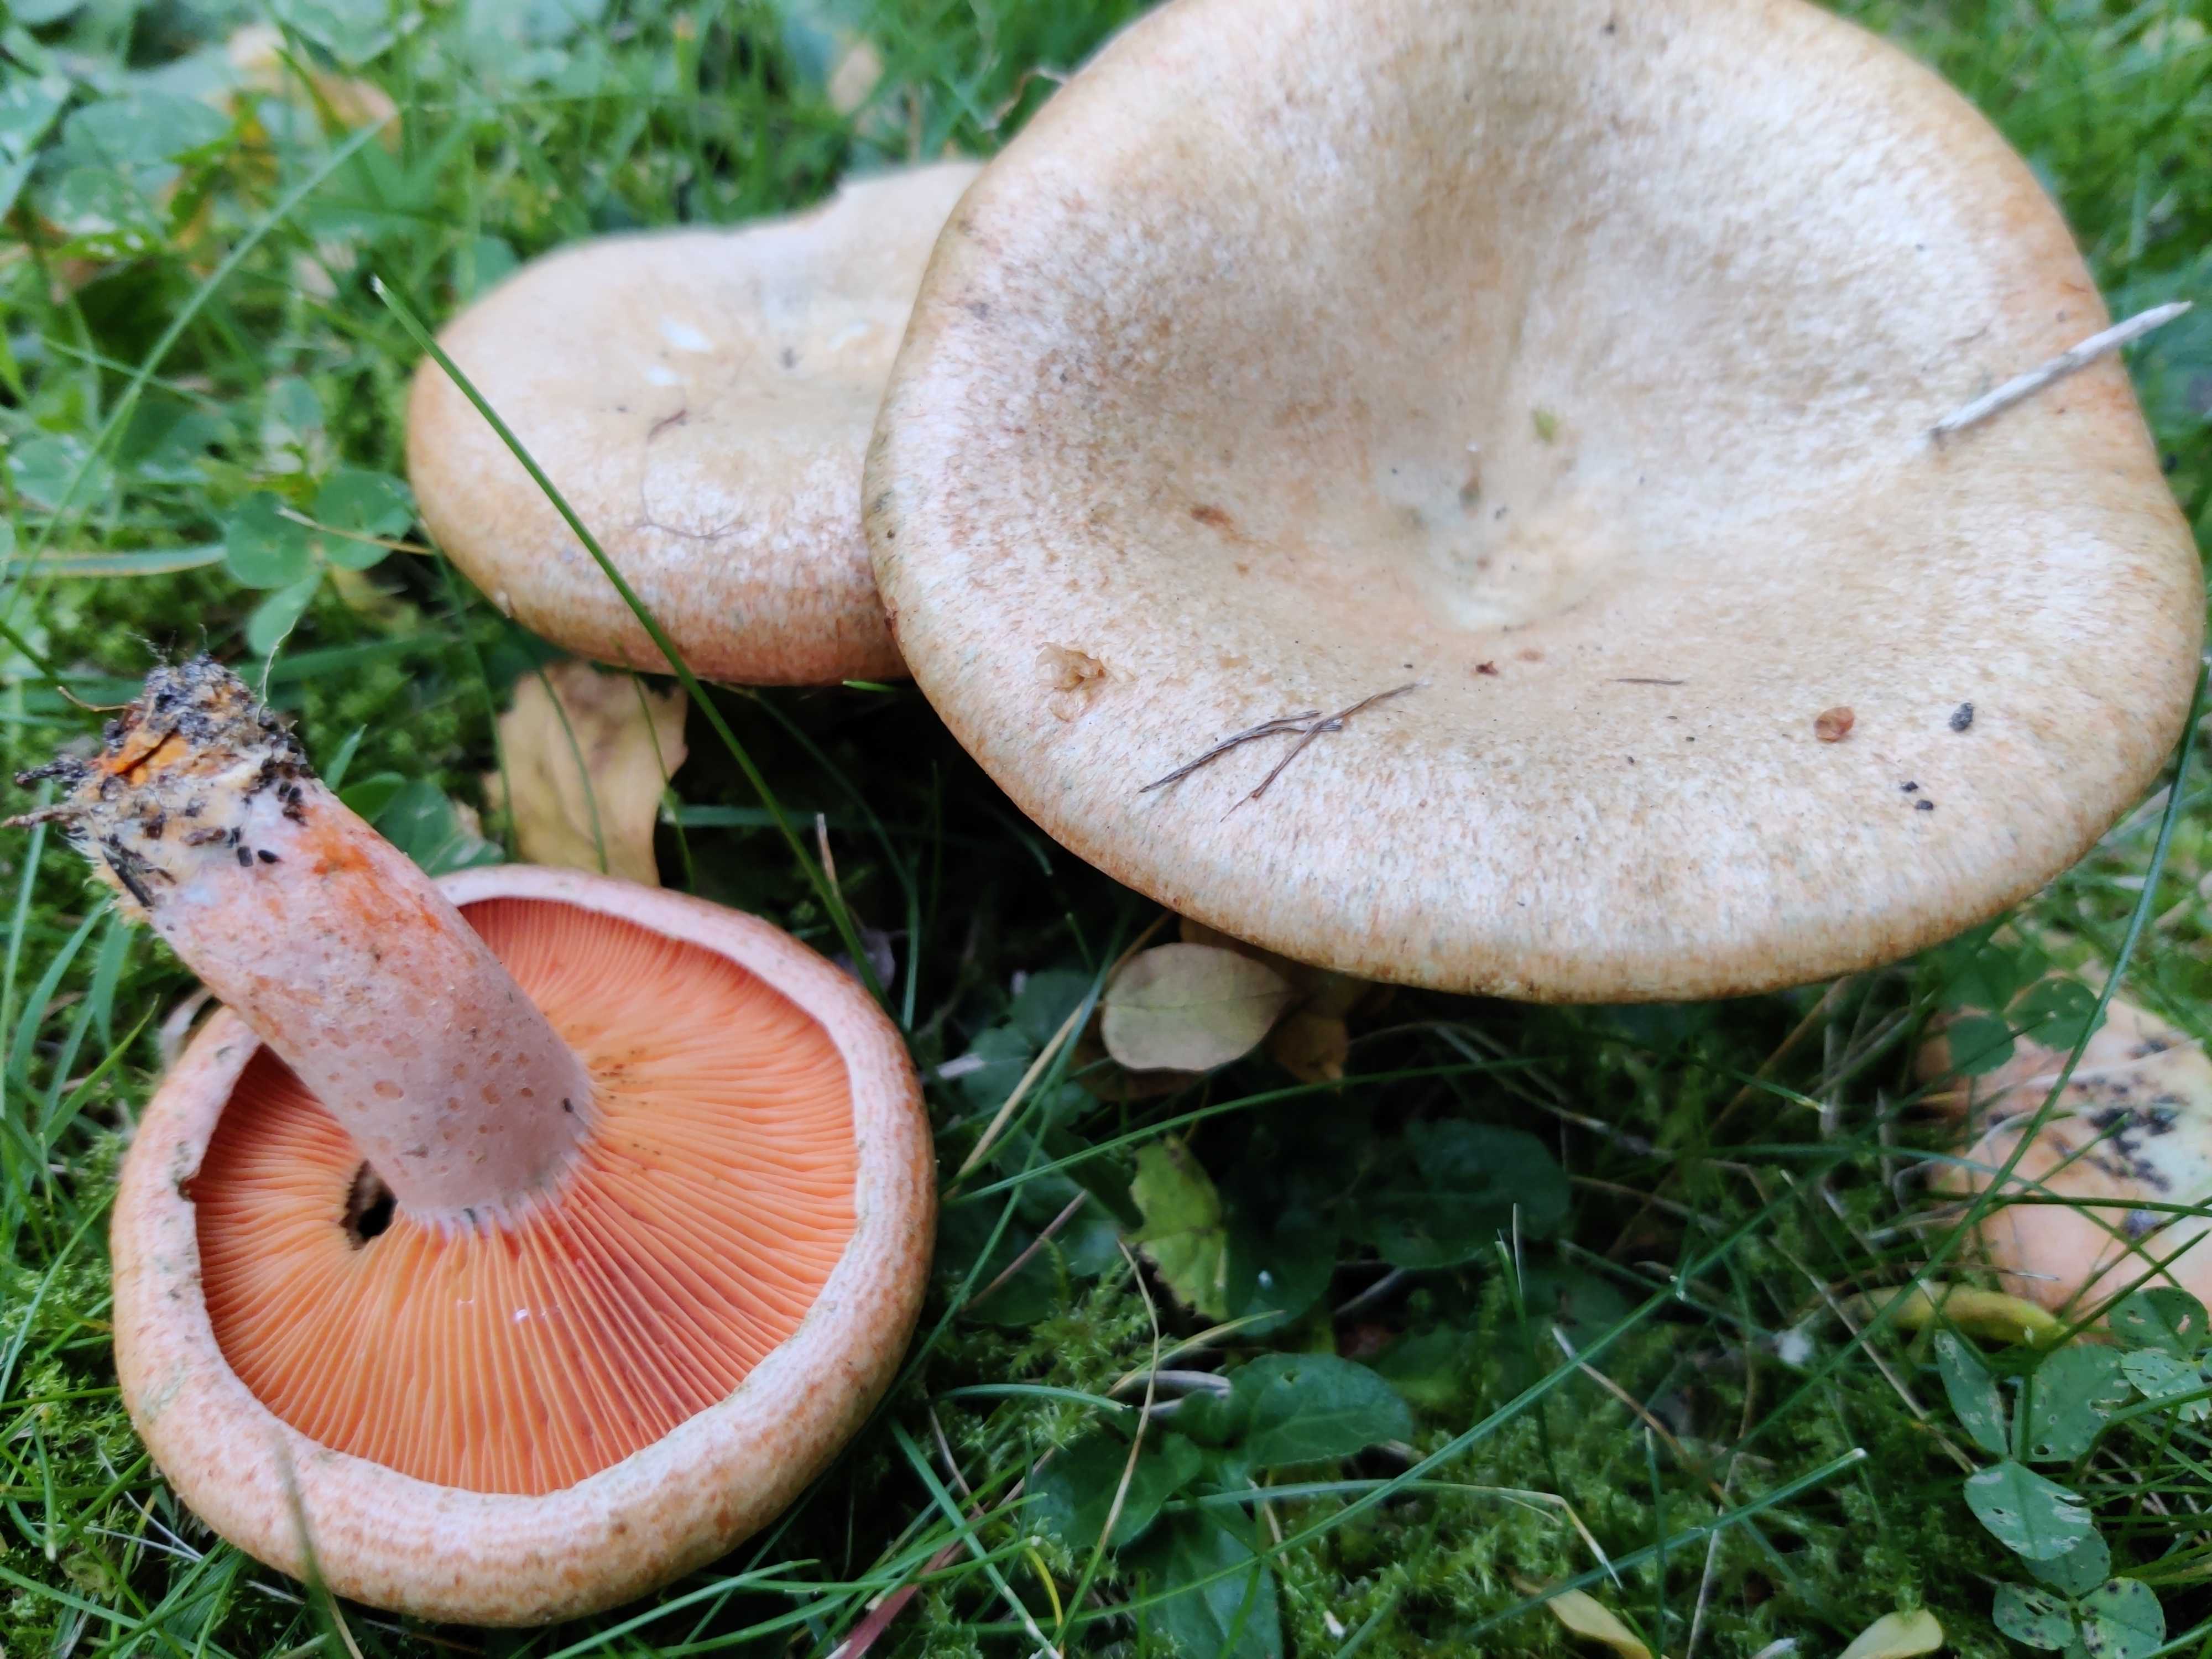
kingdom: Fungi
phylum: Basidiomycota
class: Agaricomycetes
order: Russulales
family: Russulaceae
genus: Lactarius
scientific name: Lactarius deterrimus
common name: gran-mælkehat
